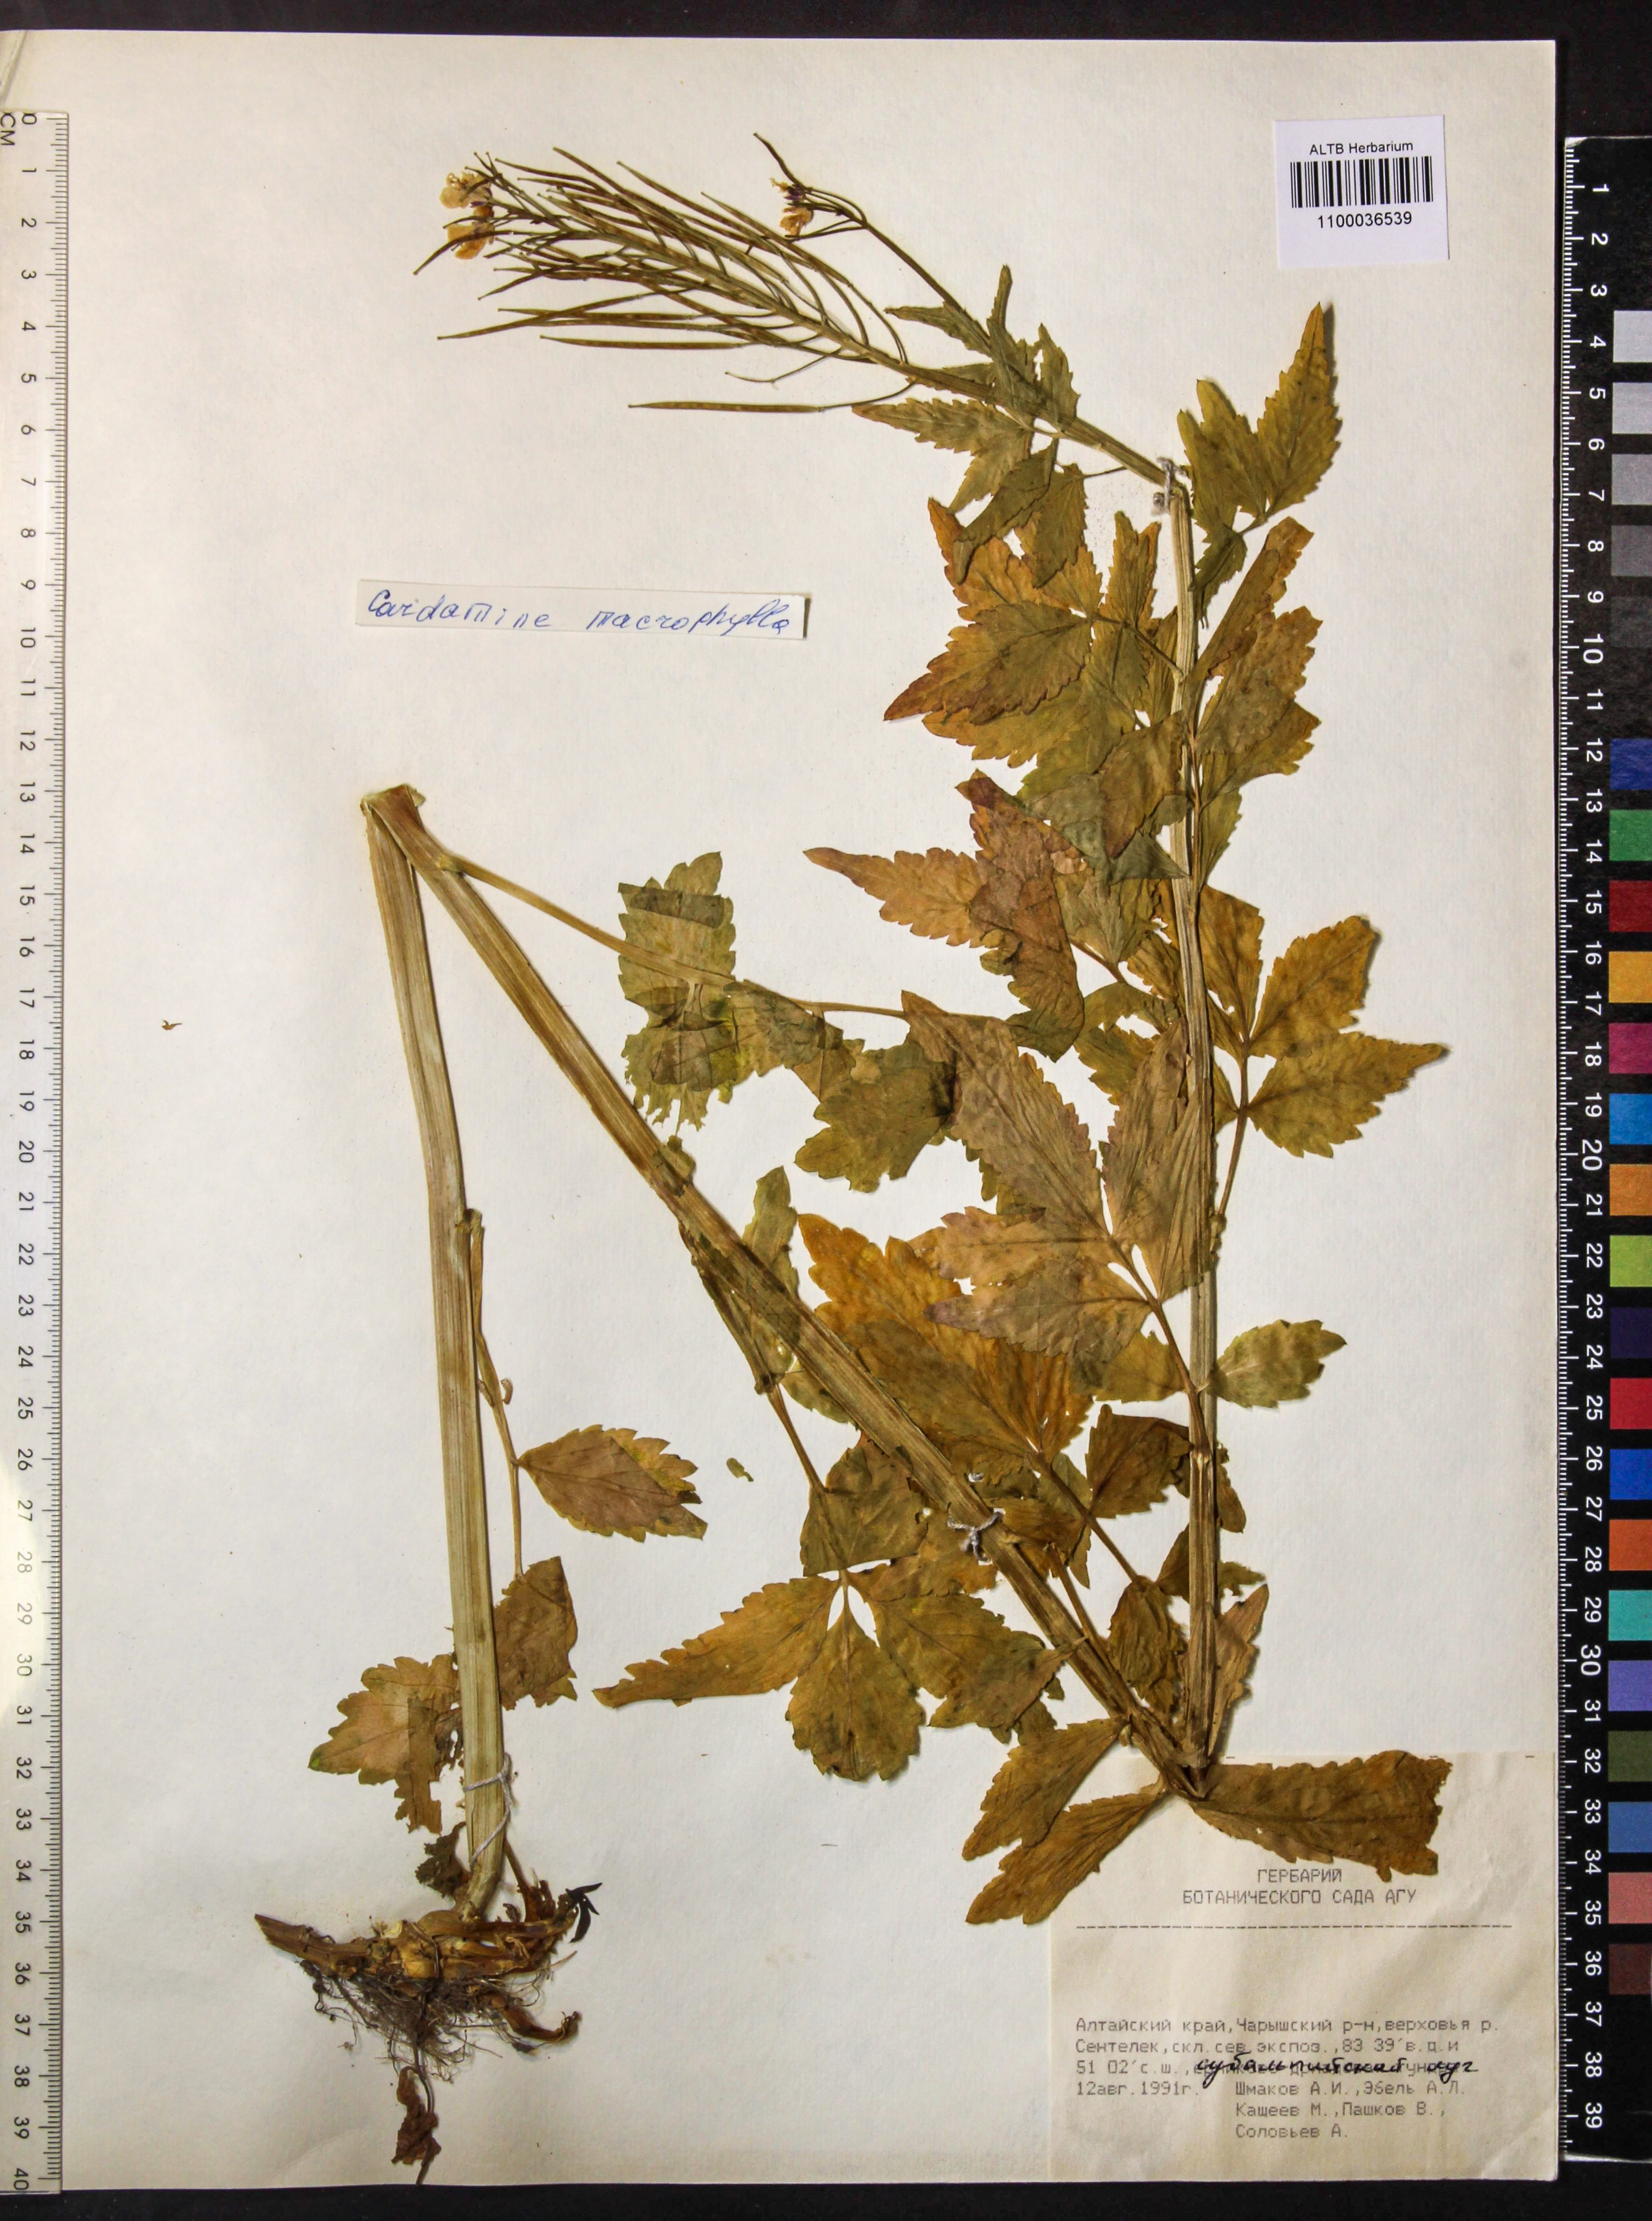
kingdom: Plantae
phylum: Tracheophyta
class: Magnoliopsida
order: Brassicales
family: Brassicaceae
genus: Cardamine
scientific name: Cardamine macrophylla
